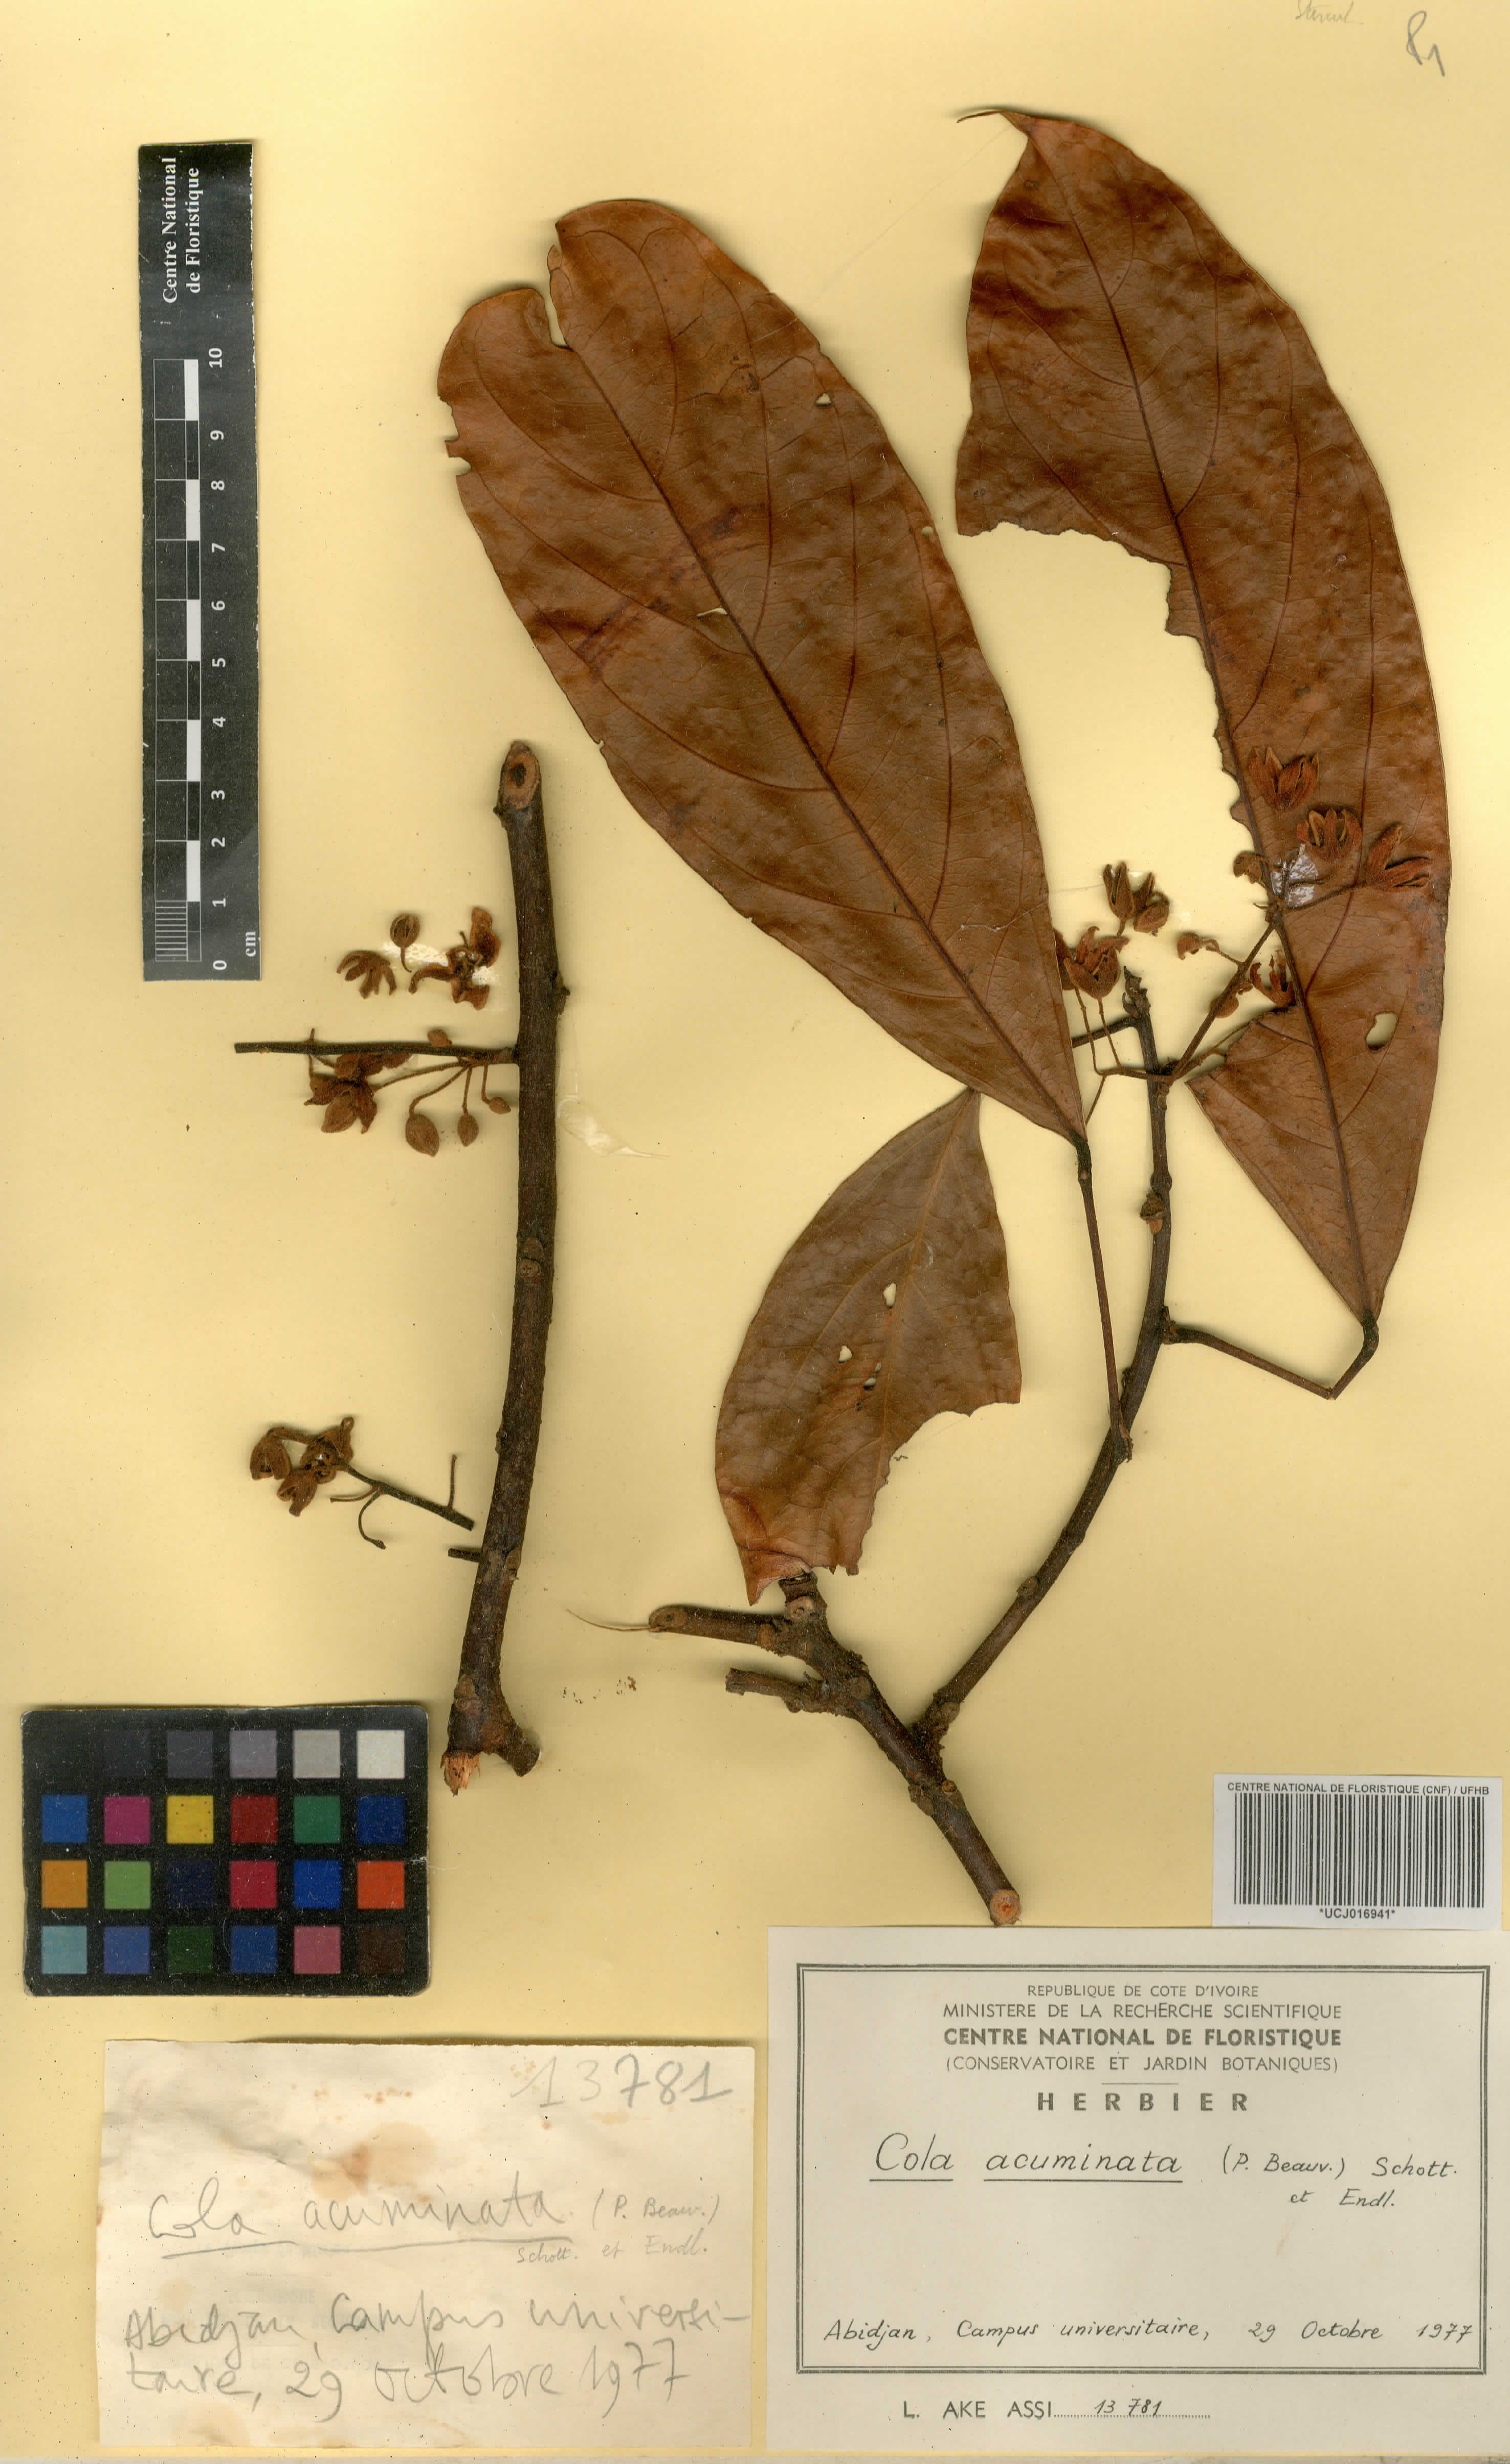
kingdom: Plantae
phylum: Tracheophyta
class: Magnoliopsida
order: Malvales
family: Malvaceae
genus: Cola
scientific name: Cola acuminata
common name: True kola
